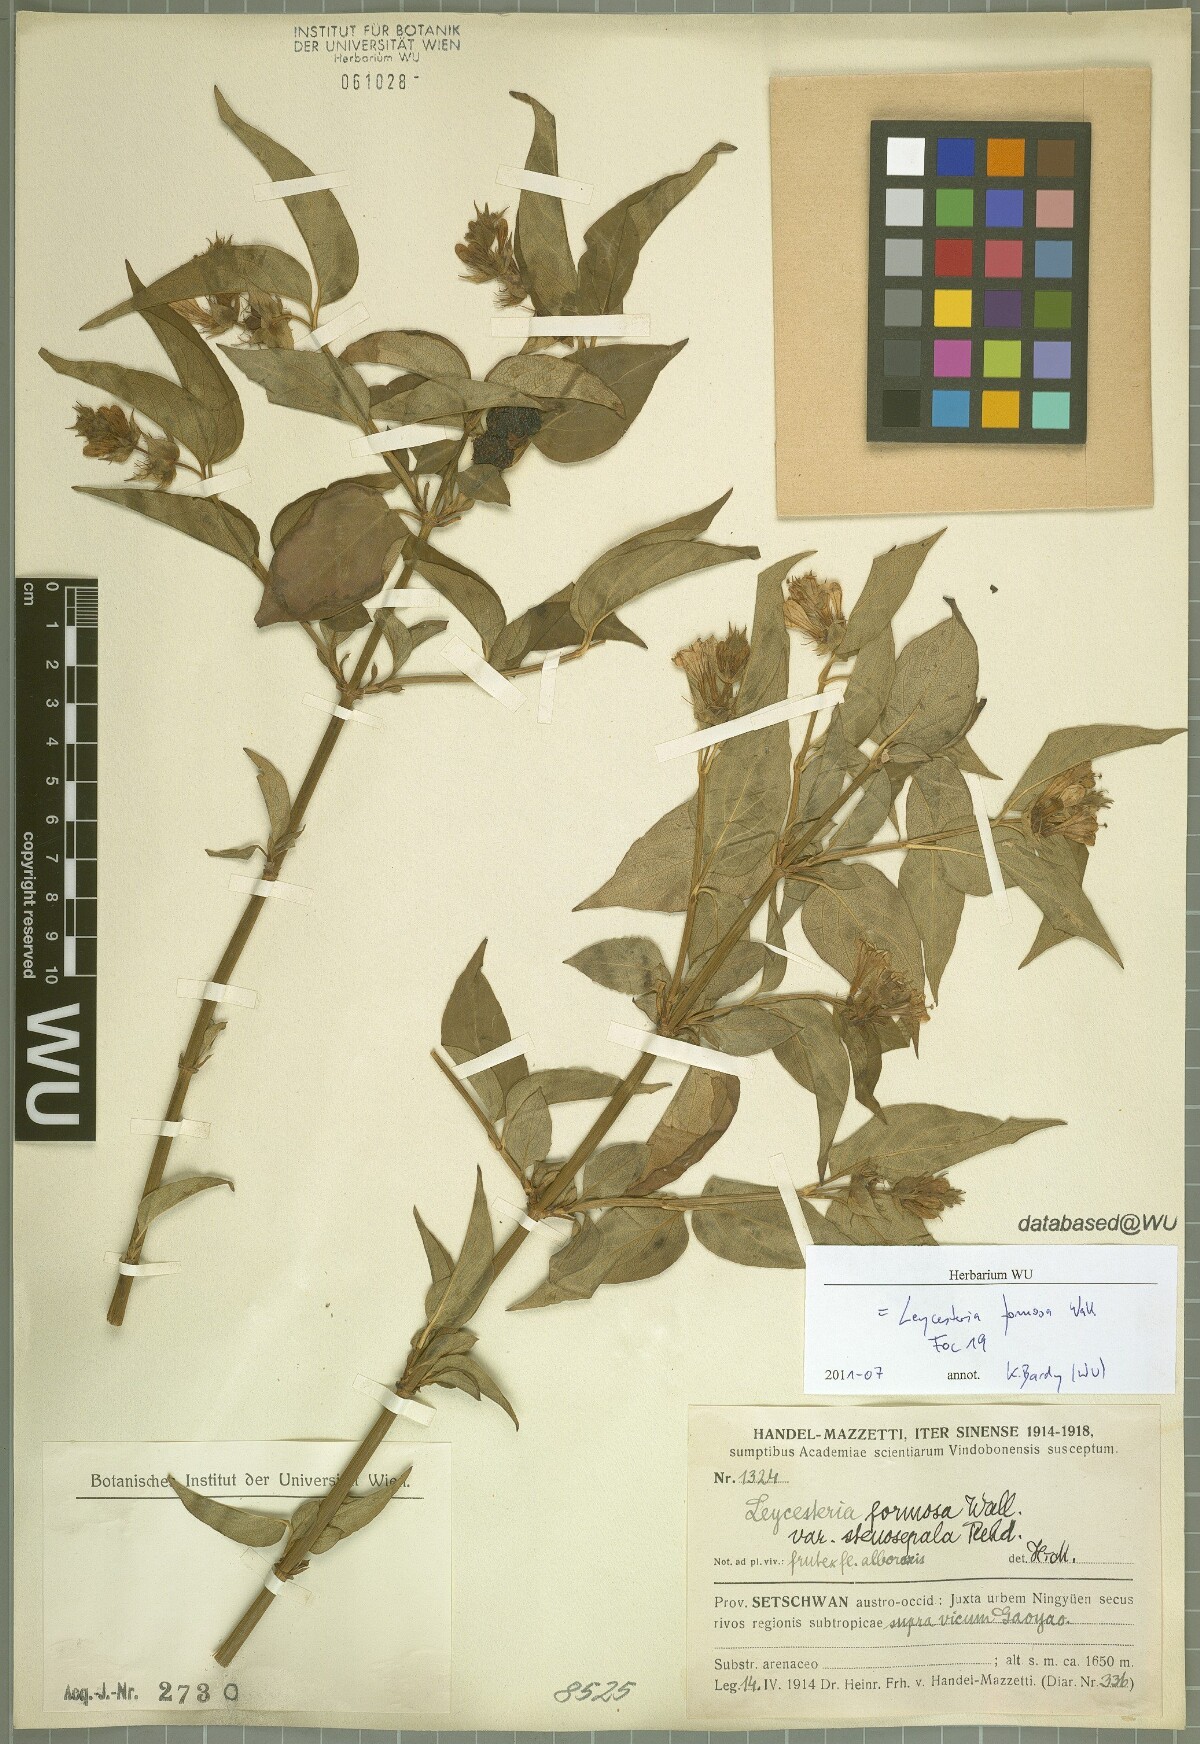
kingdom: Plantae
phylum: Tracheophyta
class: Magnoliopsida
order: Dipsacales
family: Caprifoliaceae
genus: Leycesteria
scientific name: Leycesteria formosa
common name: Himalayan honeysuckle
